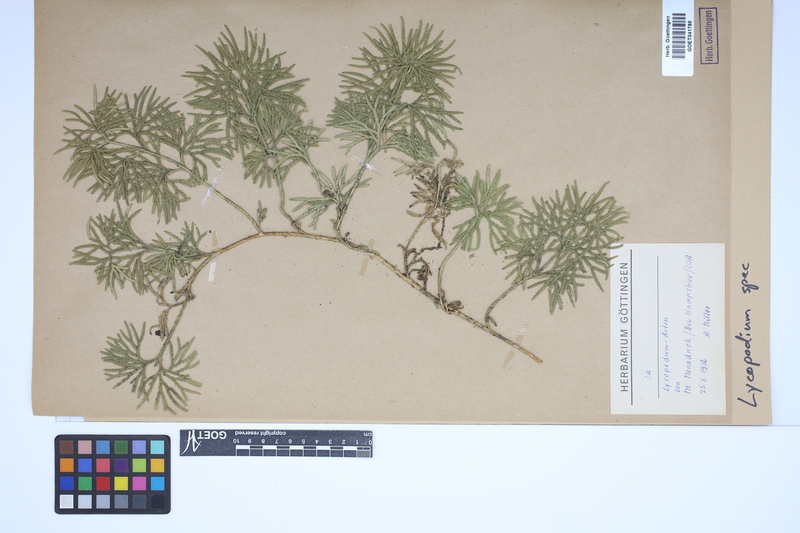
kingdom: Plantae
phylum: Tracheophyta
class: Lycopodiopsida
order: Lycopodiales
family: Lycopodiaceae
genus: Lycopodium
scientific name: Lycopodium
